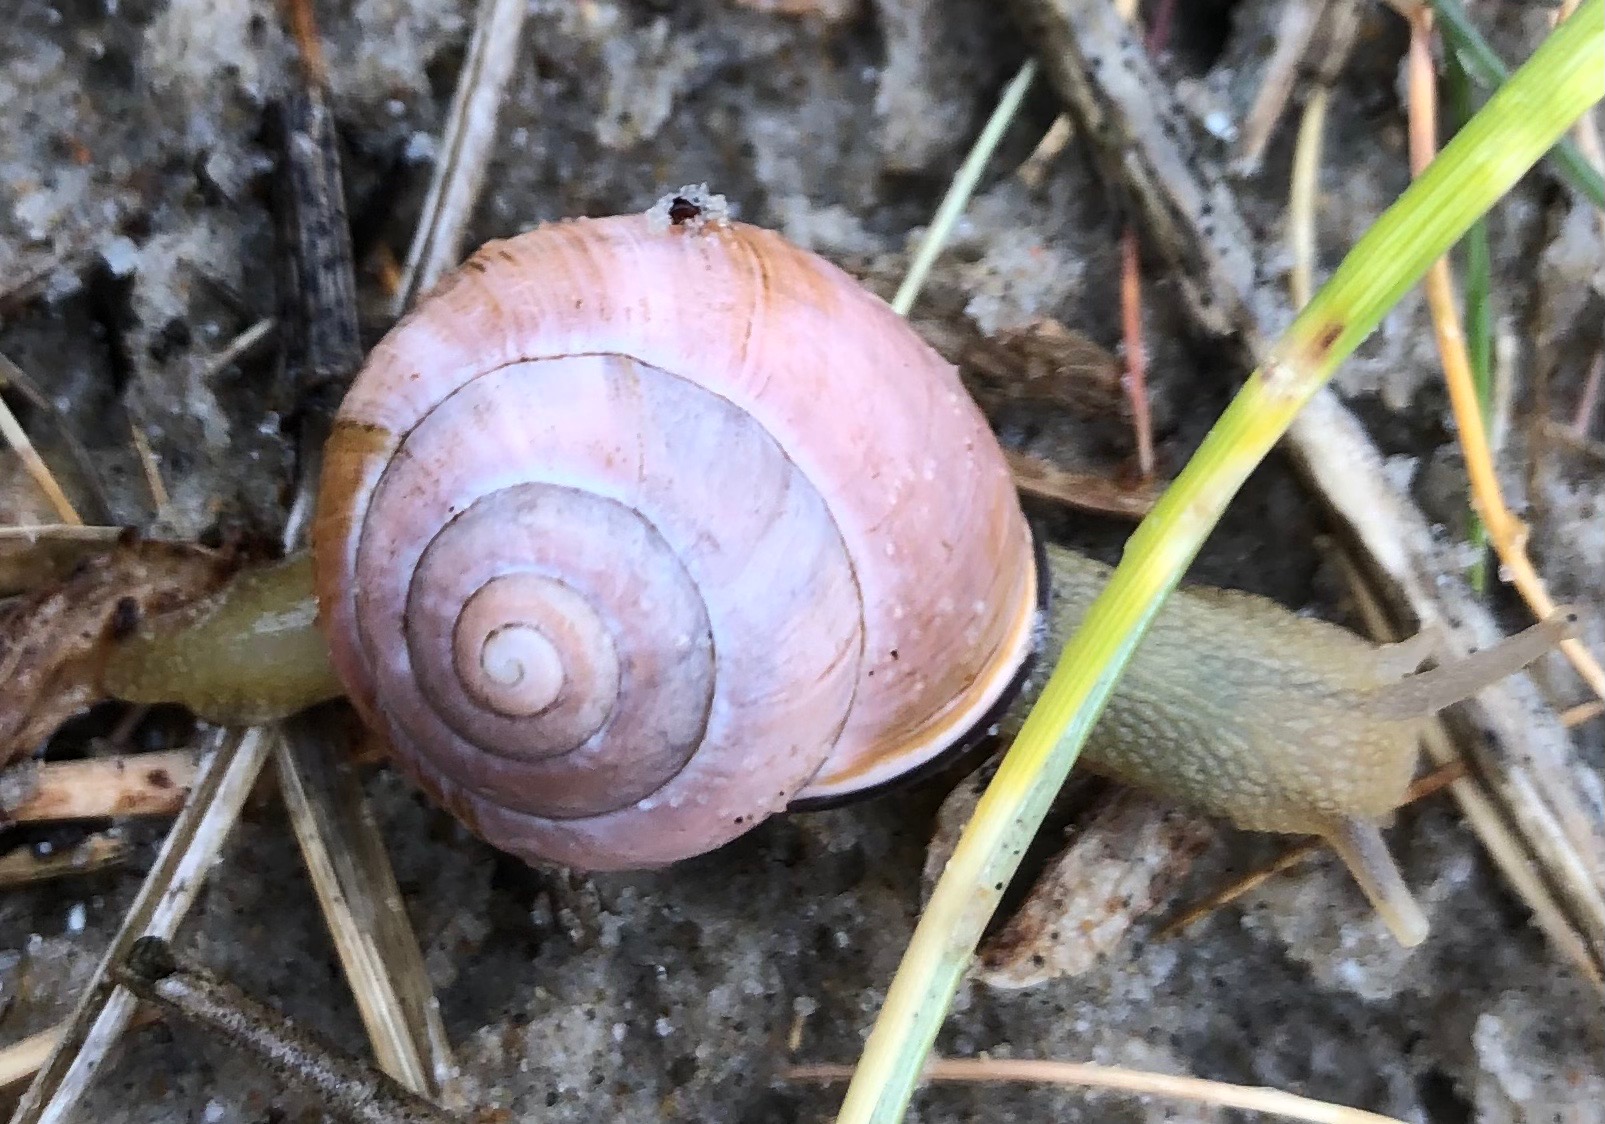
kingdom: Animalia
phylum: Mollusca
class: Gastropoda
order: Stylommatophora
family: Helicidae
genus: Cepaea
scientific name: Cepaea nemoralis
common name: Lundsnegl
